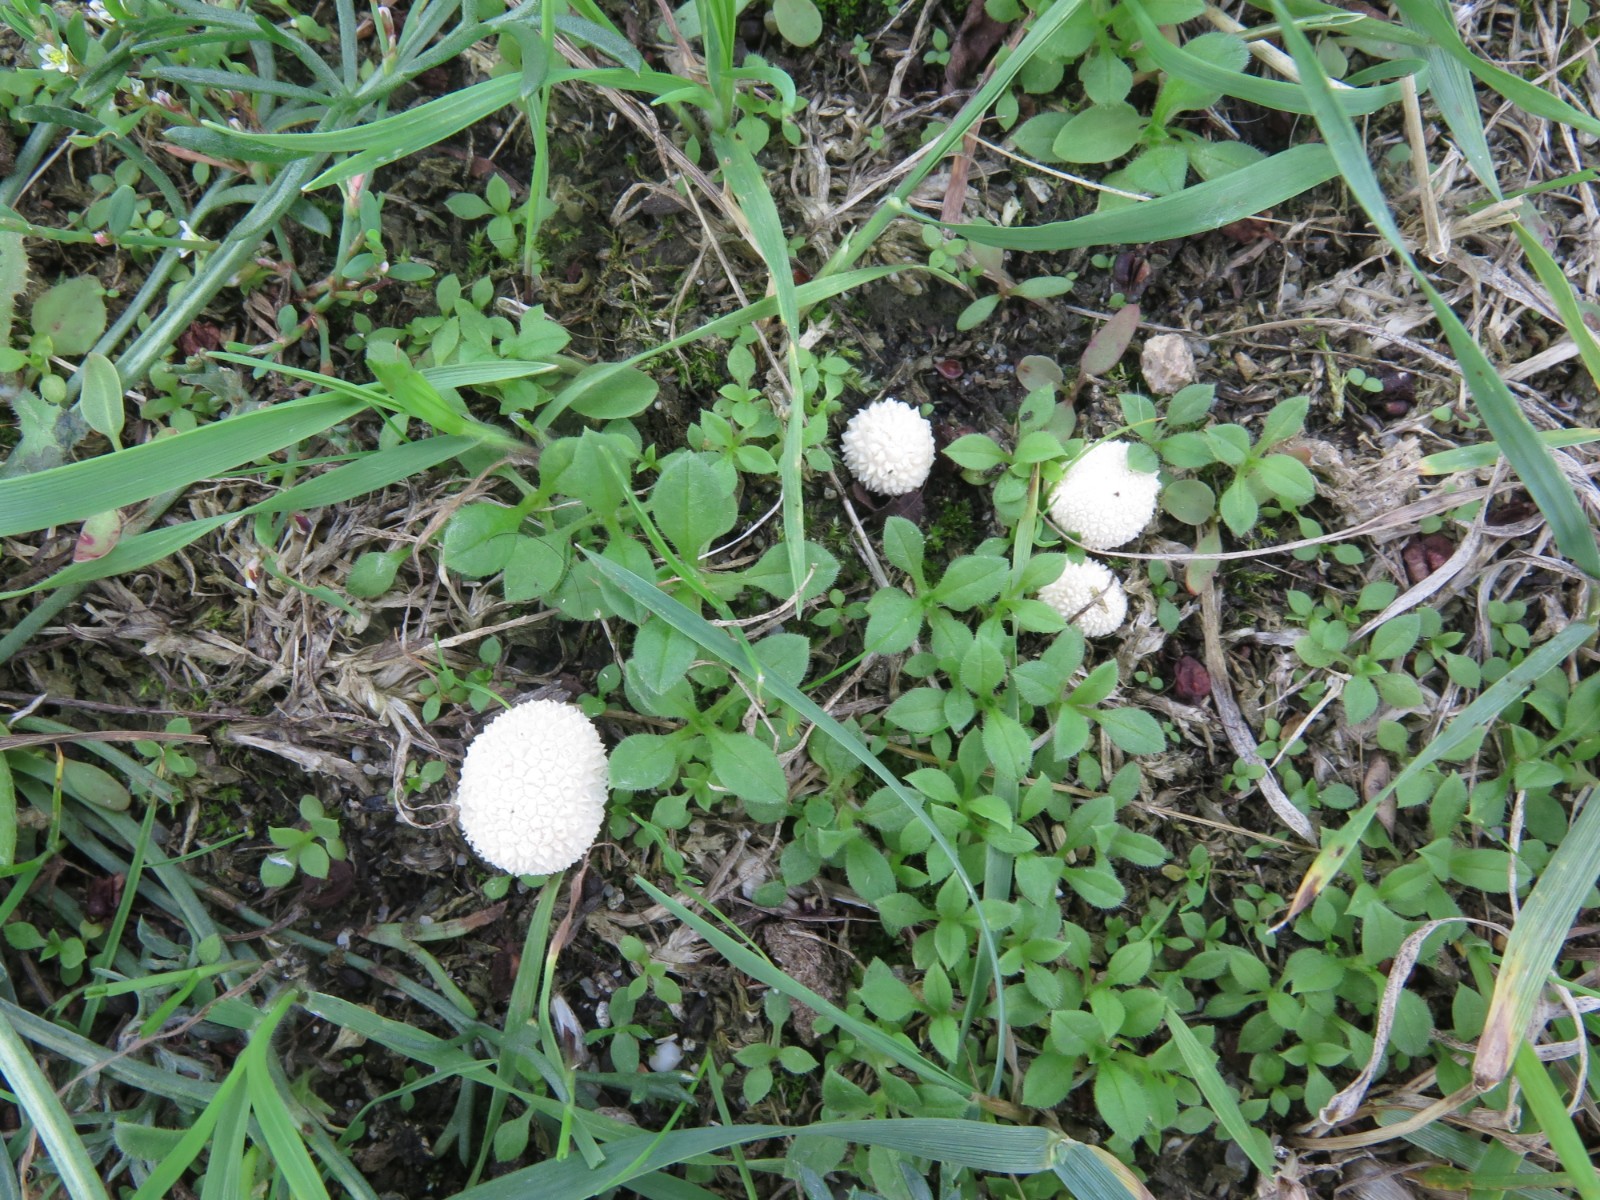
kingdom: Fungi
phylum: Basidiomycota
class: Agaricomycetes
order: Agaricales
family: Lycoperdaceae
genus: Lycoperdon
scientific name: Lycoperdon perlatum
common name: krystal-støvbold
